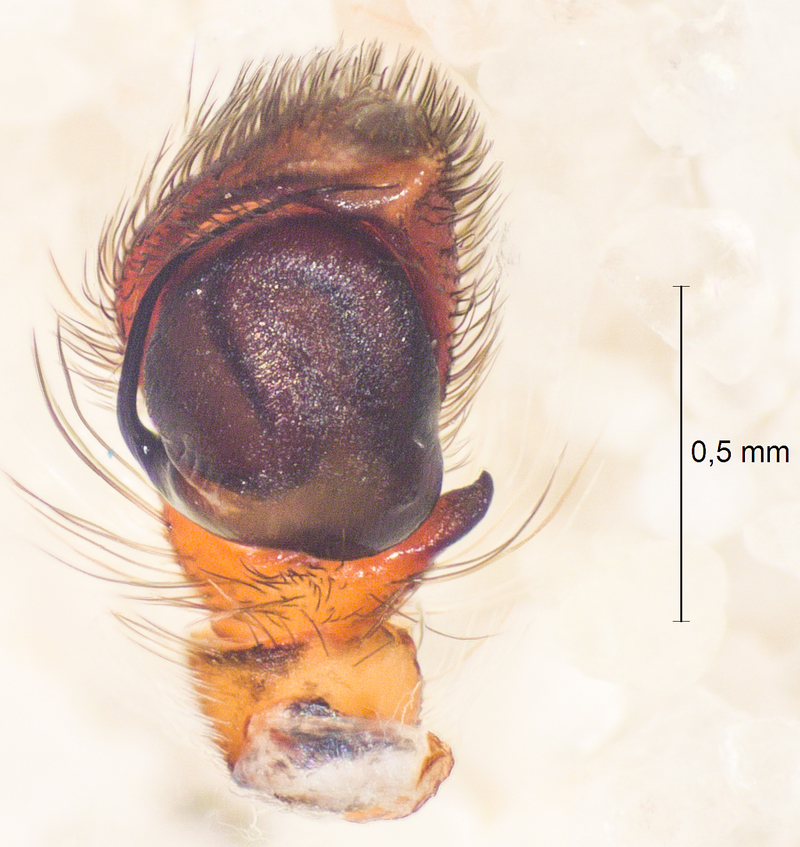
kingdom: Animalia
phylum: Arthropoda
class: Arachnida
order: Araneae
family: Salticidae
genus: Sittisax
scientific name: Sittisax saxicola
